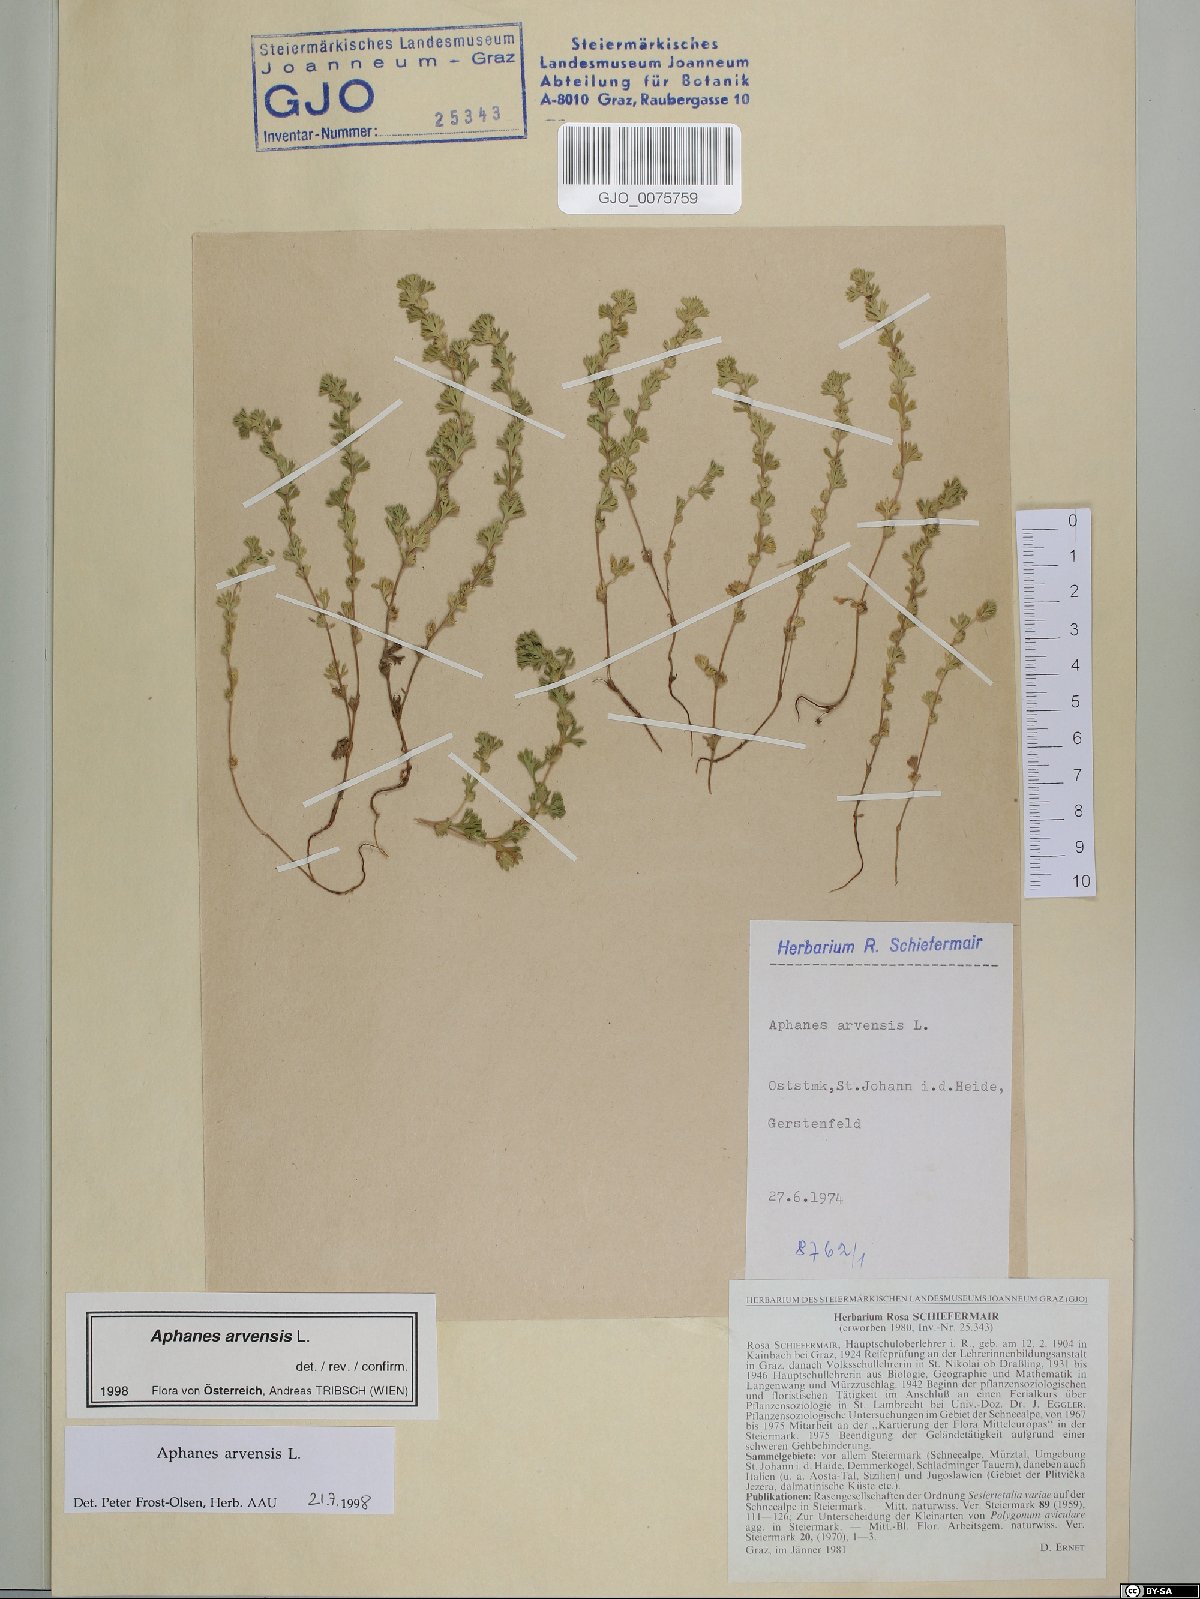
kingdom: Plantae
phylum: Tracheophyta
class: Magnoliopsida
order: Rosales
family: Rosaceae
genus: Aphanes
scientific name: Aphanes arvensis
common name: Parsley-piert
